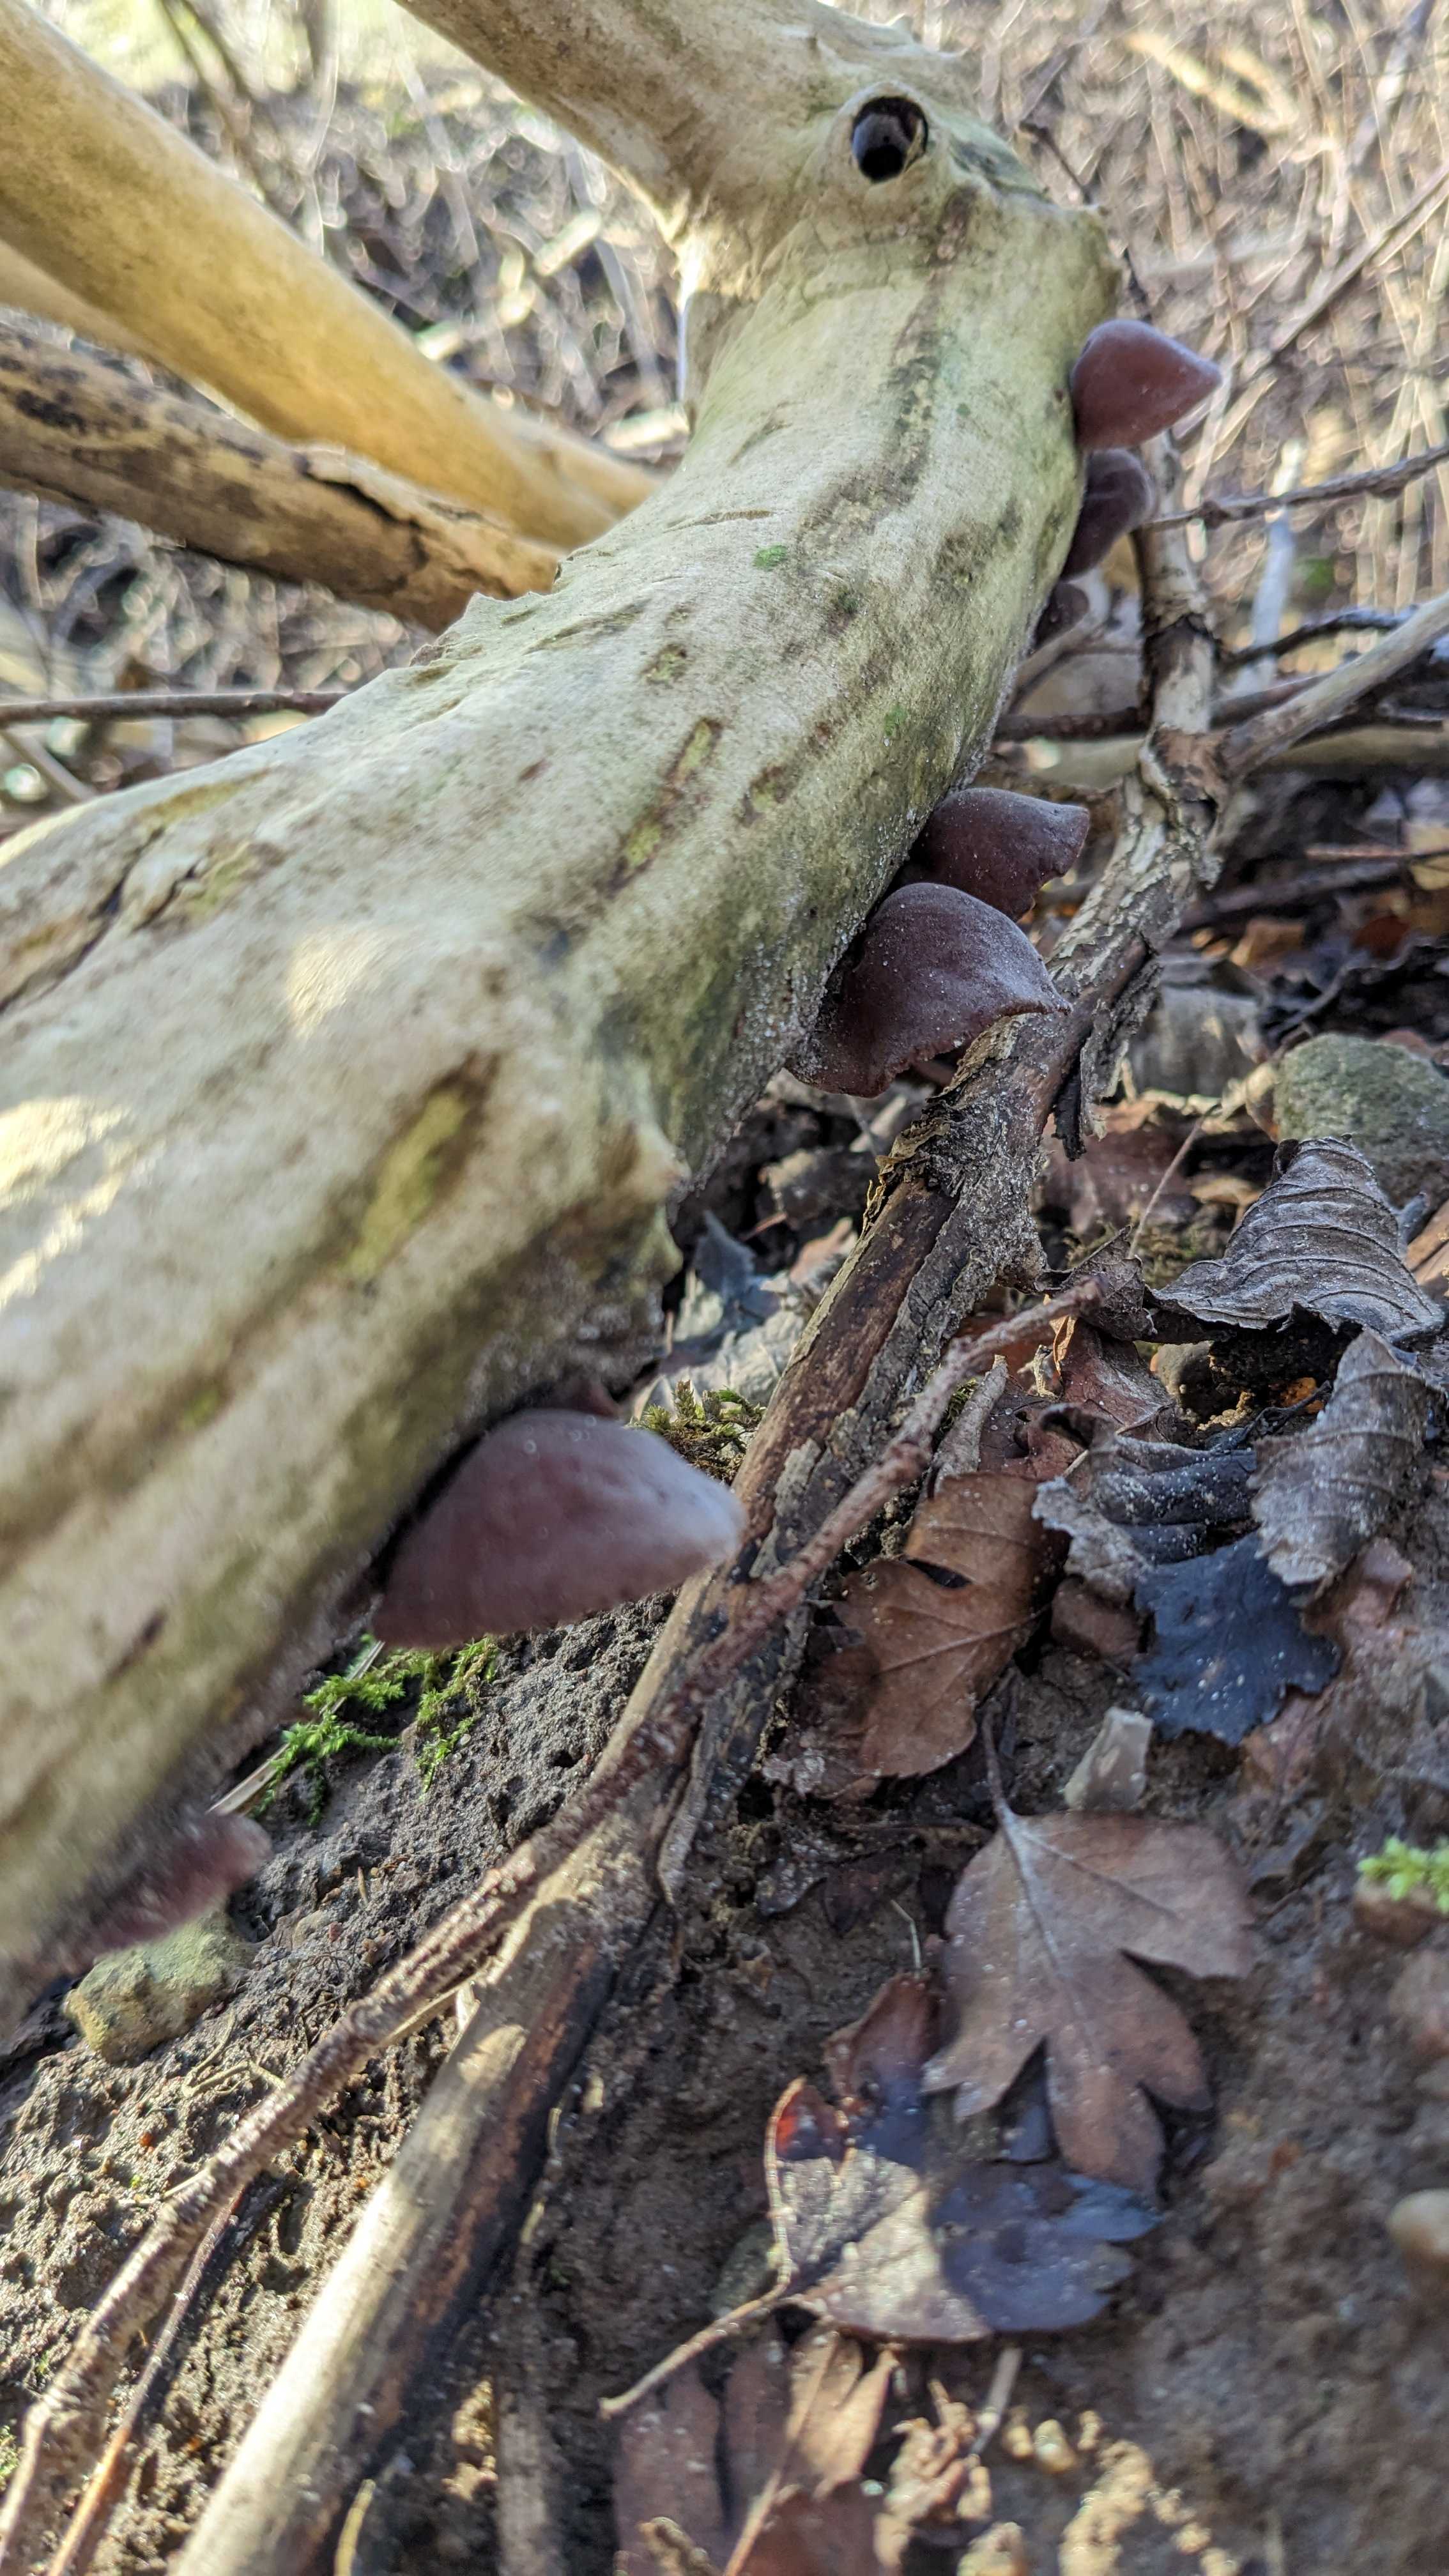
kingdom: Fungi
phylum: Basidiomycota
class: Agaricomycetes
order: Auriculariales
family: Auriculariaceae
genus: Auricularia
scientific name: Auricularia auricula-judae
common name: almindelig judasøre
